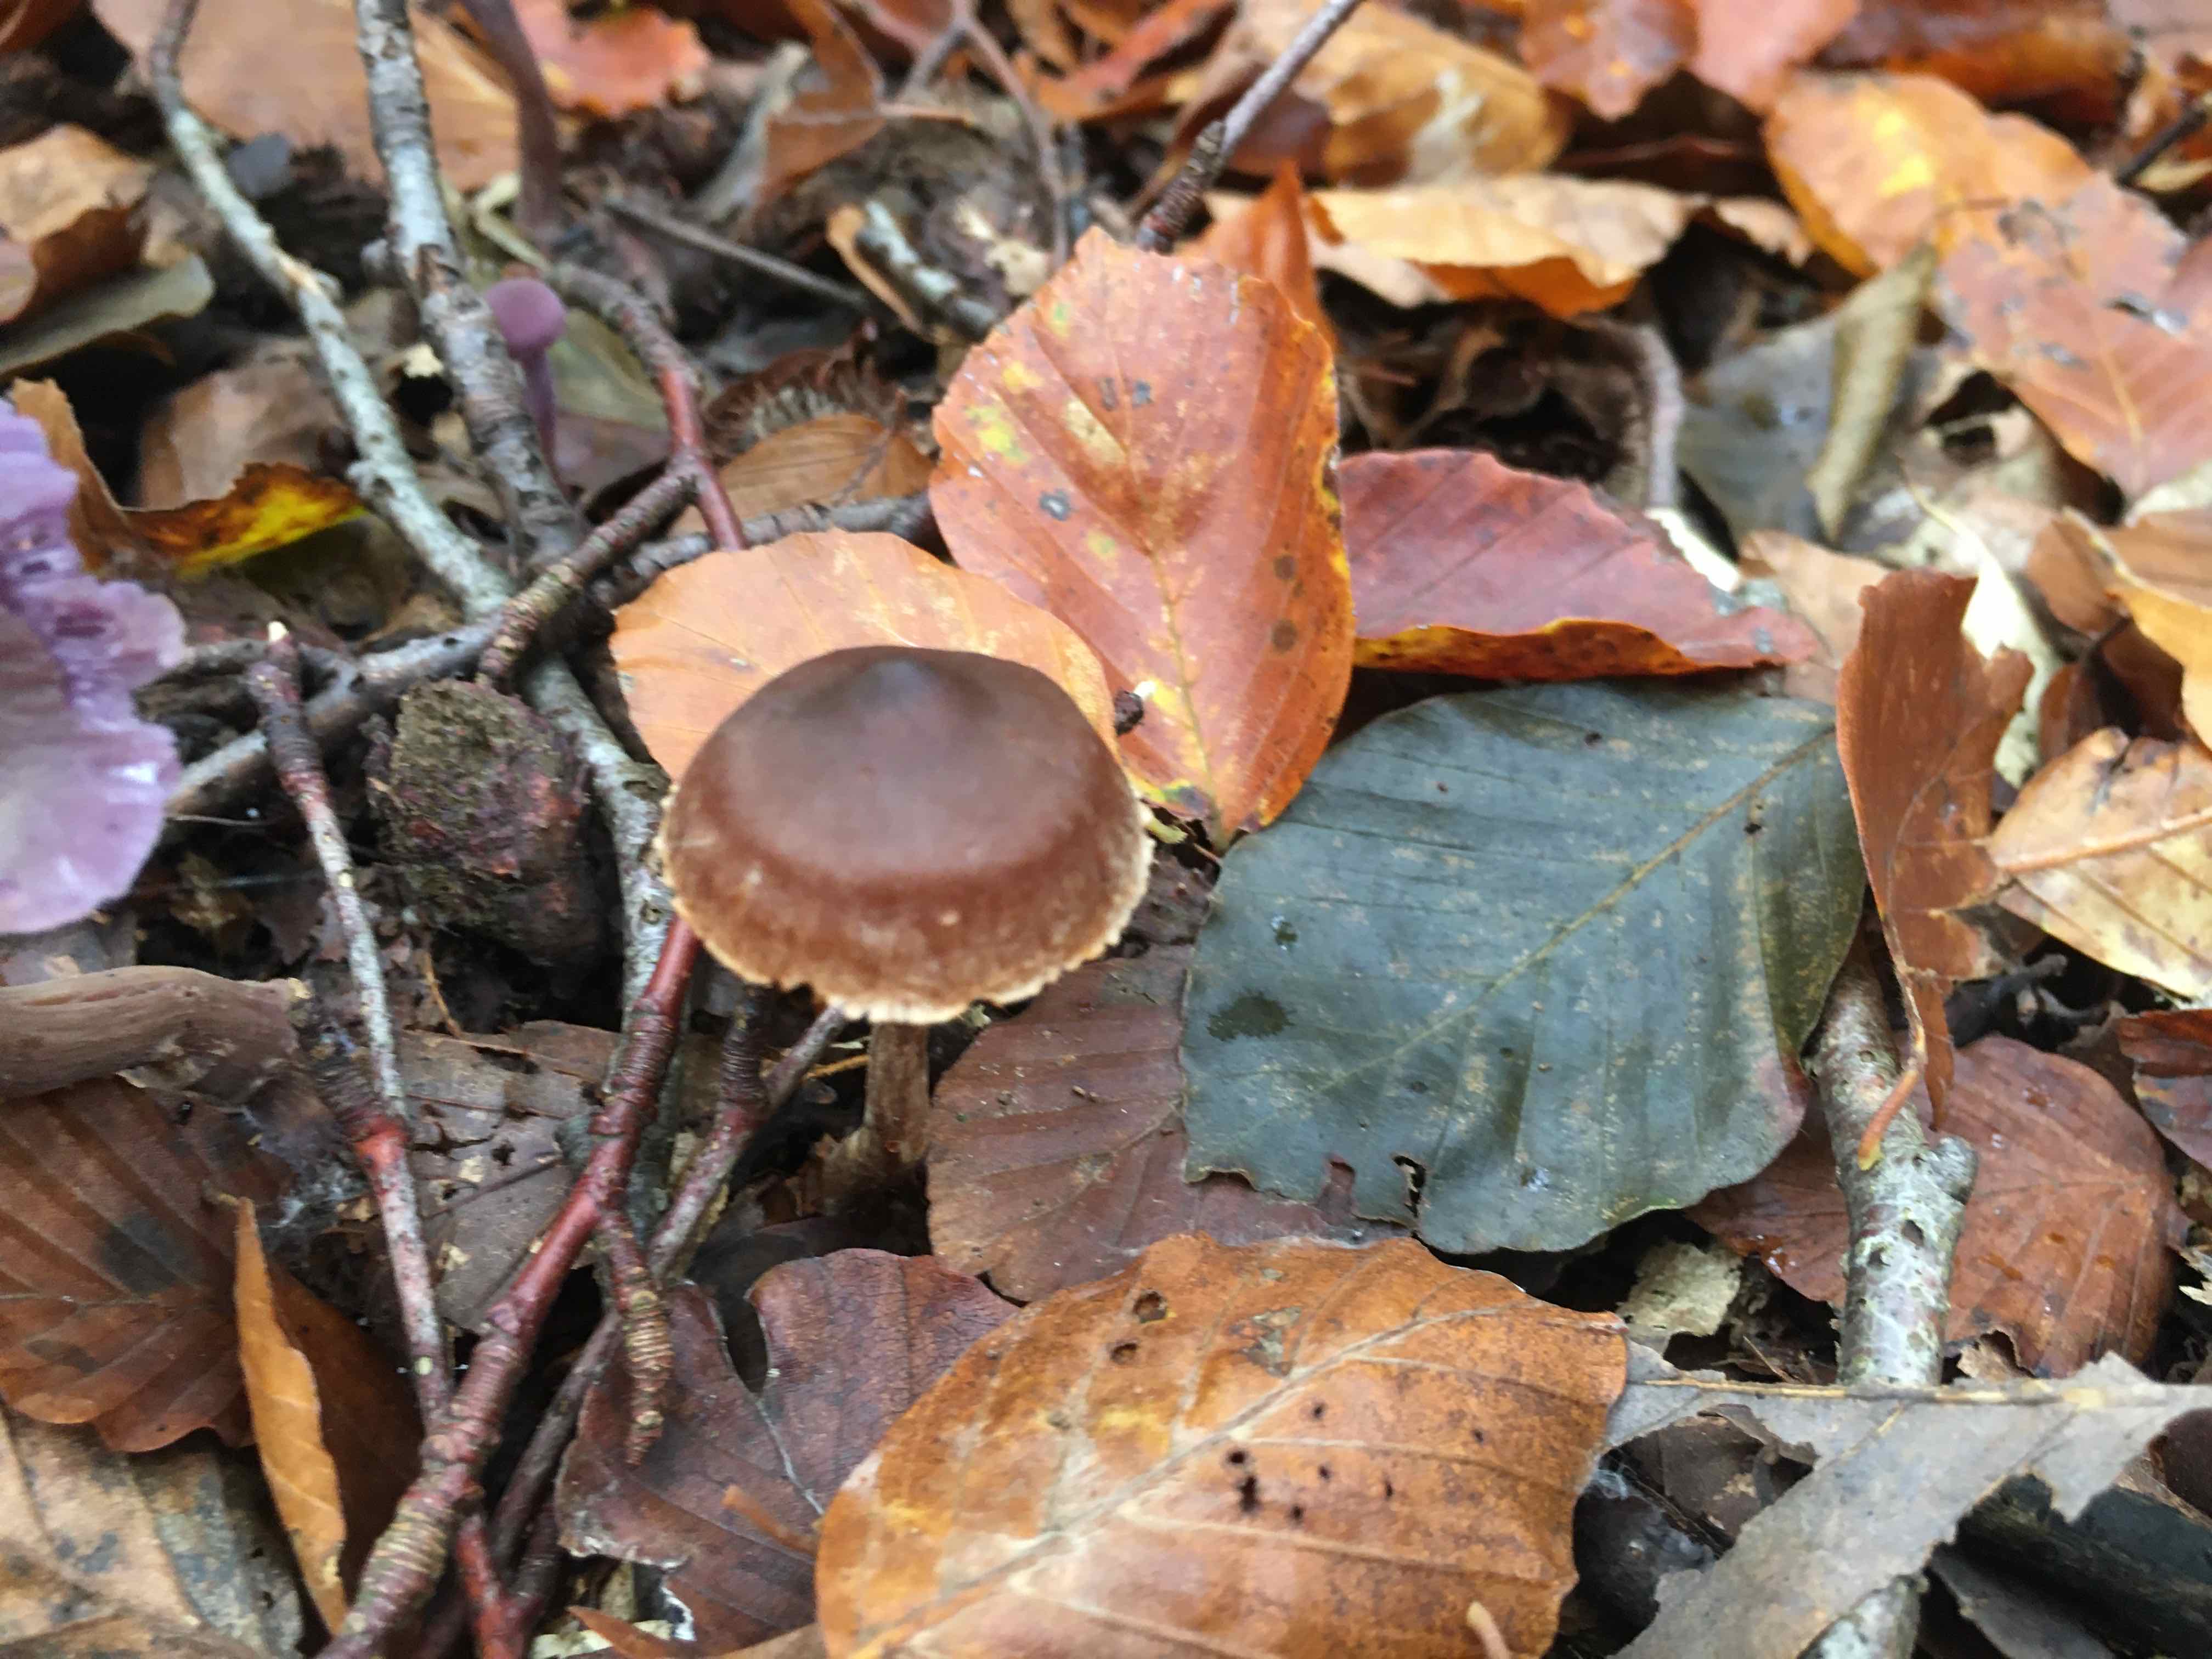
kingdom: Fungi
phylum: Basidiomycota
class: Agaricomycetes
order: Agaricales
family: Cortinariaceae
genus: Cortinarius
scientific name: Cortinarius
